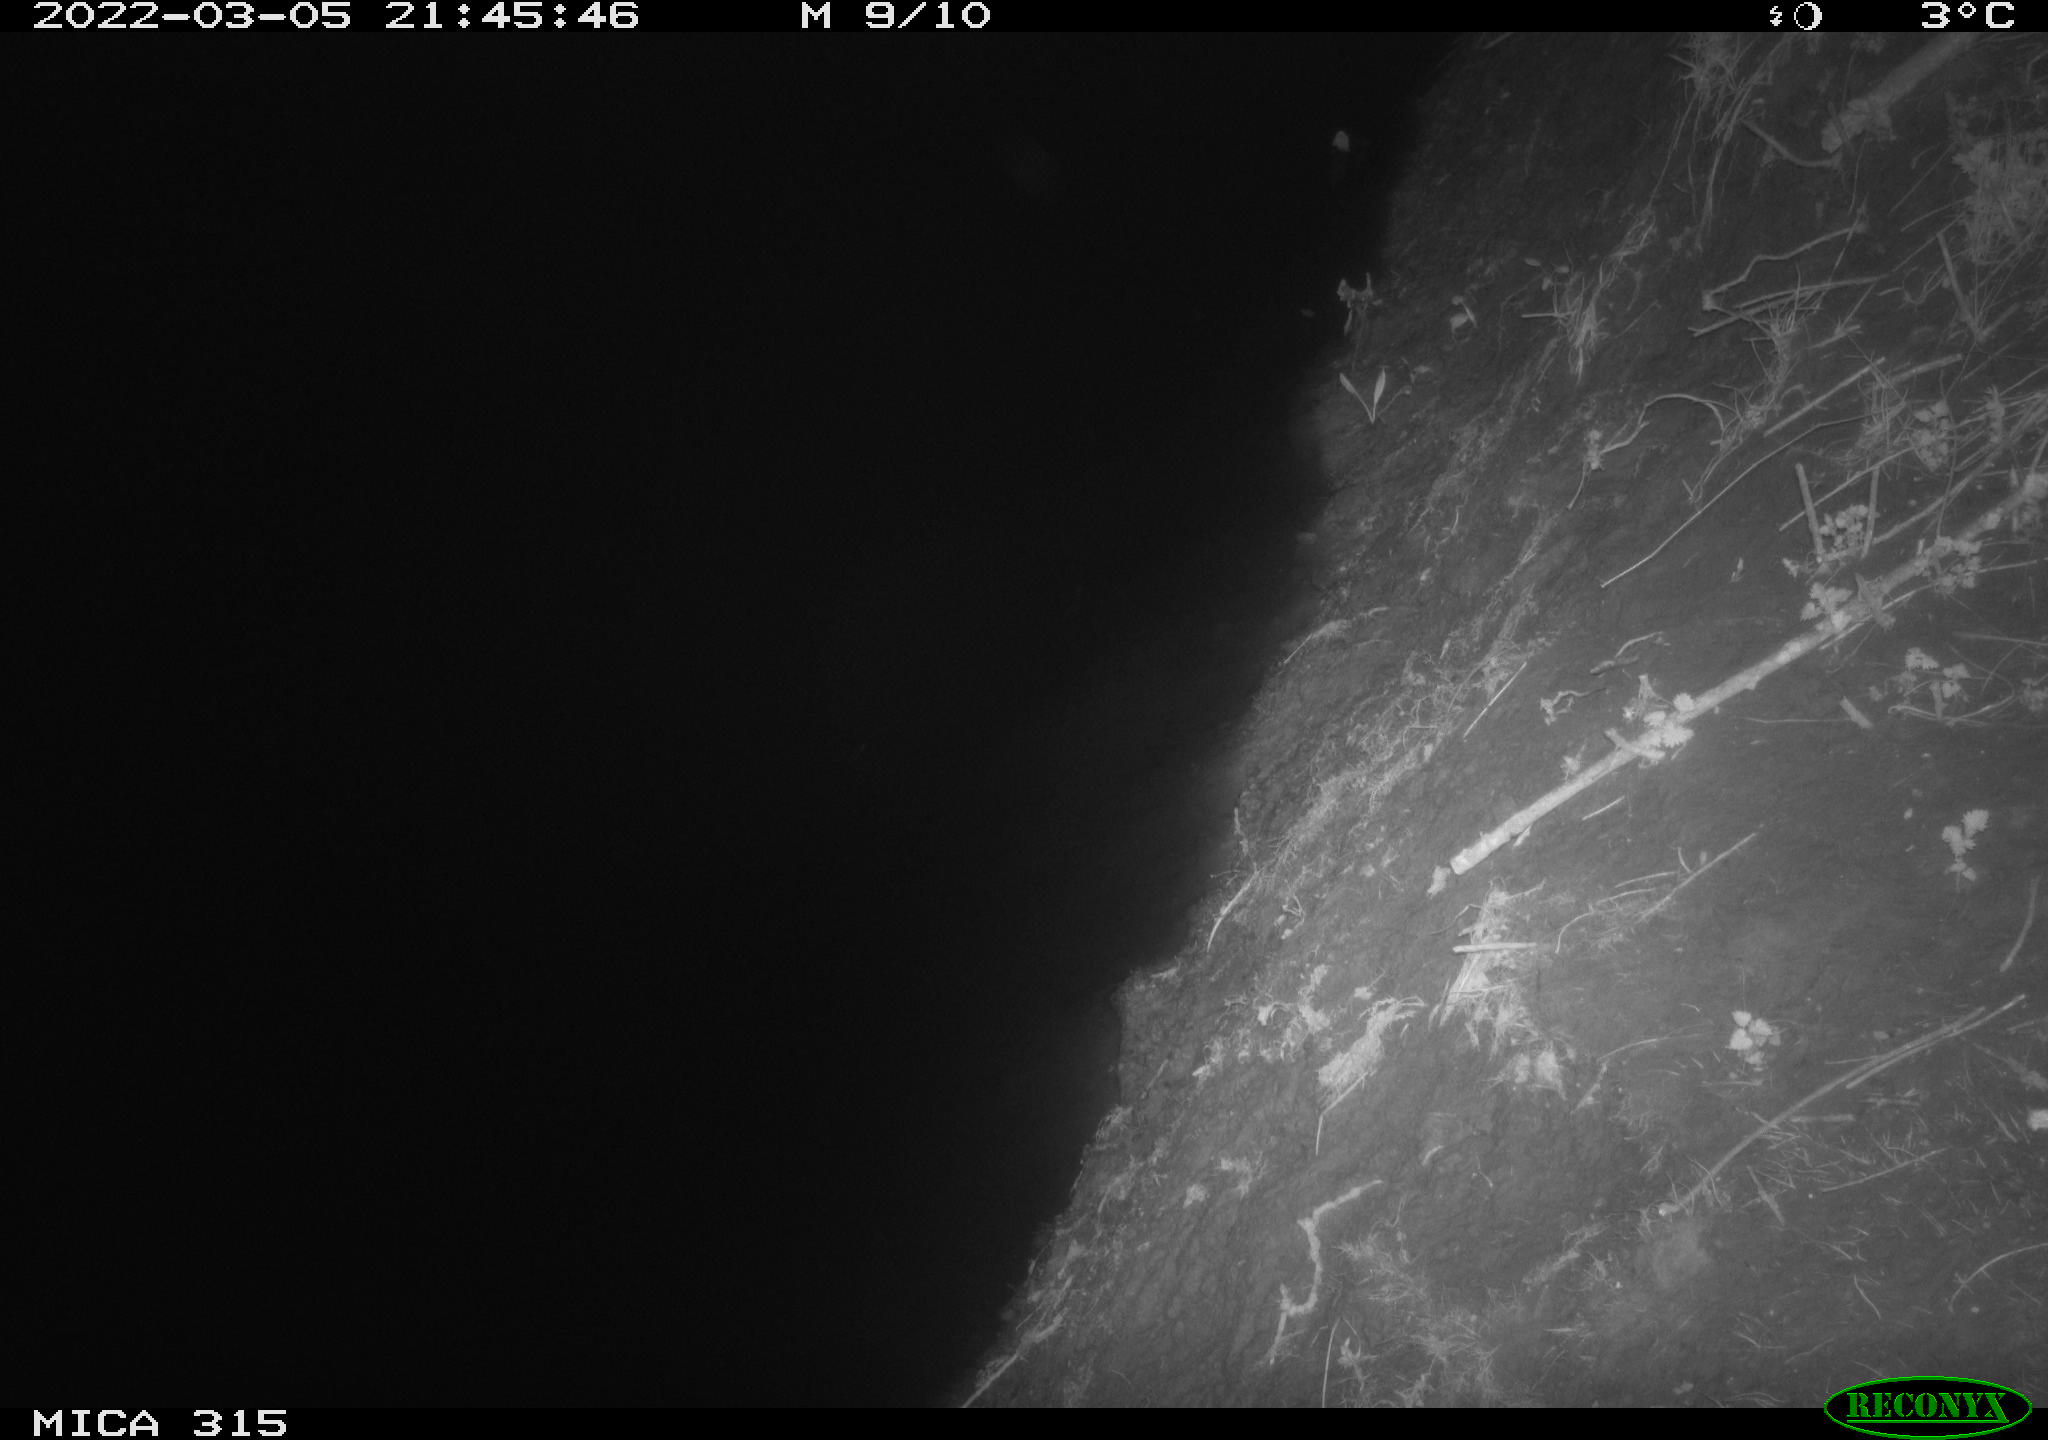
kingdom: Animalia
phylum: Chordata
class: Mammalia
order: Rodentia
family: Muridae
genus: Rattus
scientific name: Rattus norvegicus
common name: Brown rat
